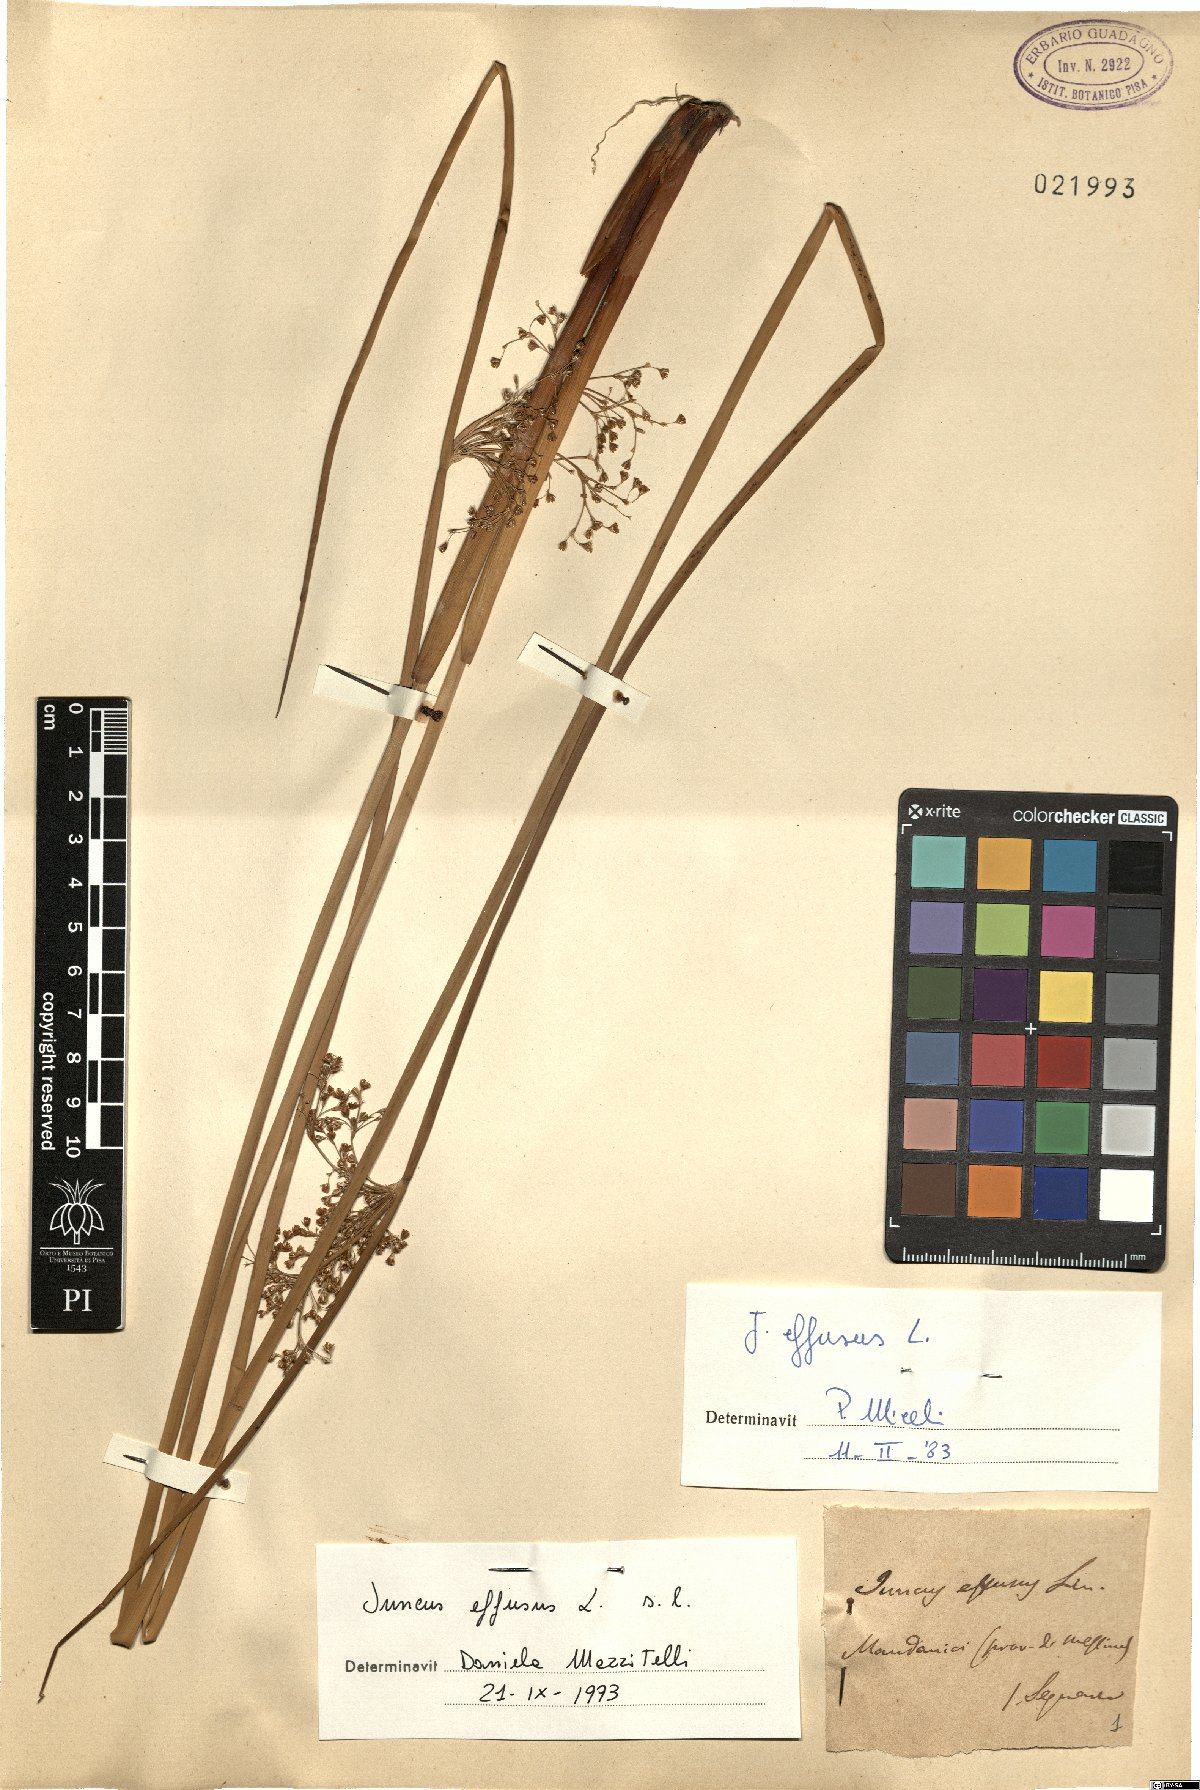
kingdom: Plantae
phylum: Tracheophyta
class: Liliopsida
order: Poales
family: Juncaceae
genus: Juncus
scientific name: Juncus effusus
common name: Soft rush
